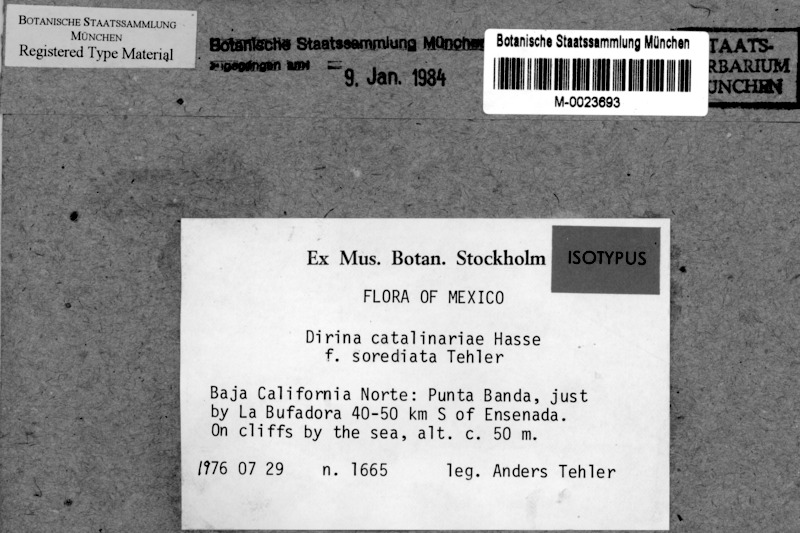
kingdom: Fungi
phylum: Ascomycota
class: Arthoniomycetes
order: Arthoniales
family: Roccellaceae
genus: Dirina
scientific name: Dirina catalinariae
